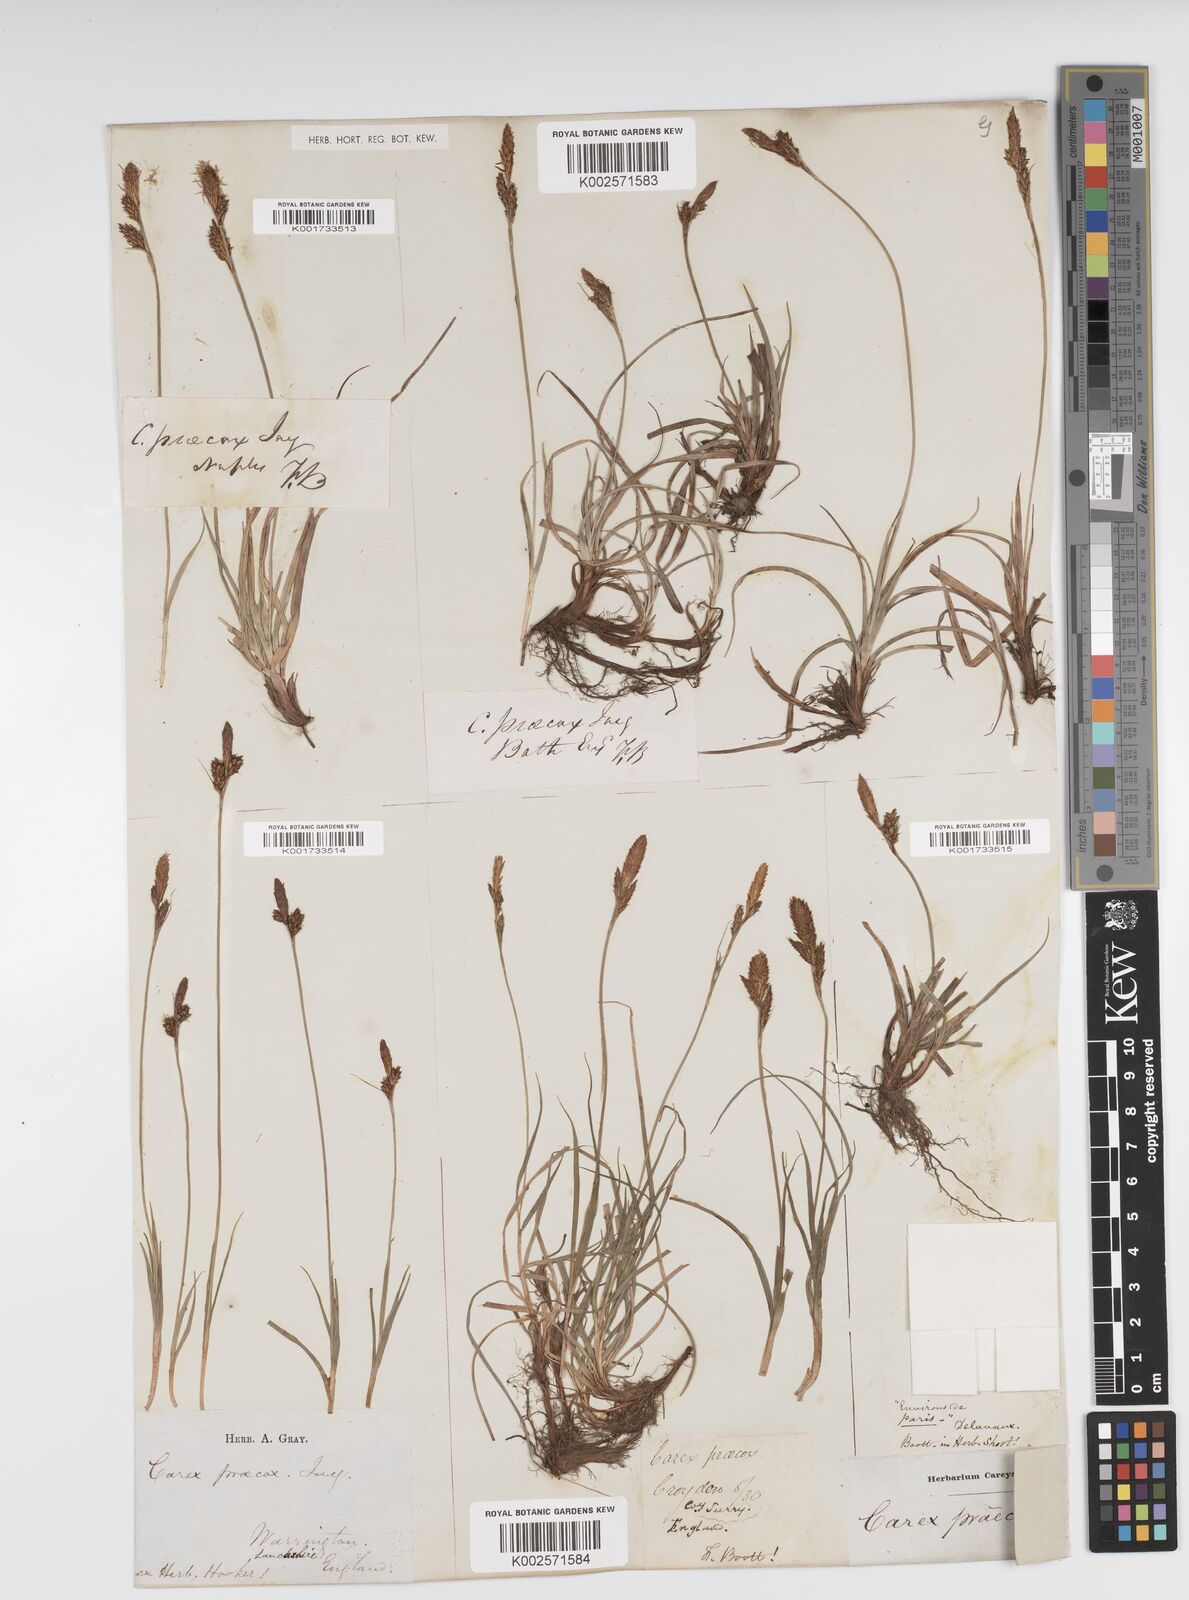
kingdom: Plantae
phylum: Tracheophyta
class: Liliopsida
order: Poales
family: Cyperaceae
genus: Carex
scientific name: Carex caryophyllea
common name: Spring sedge
